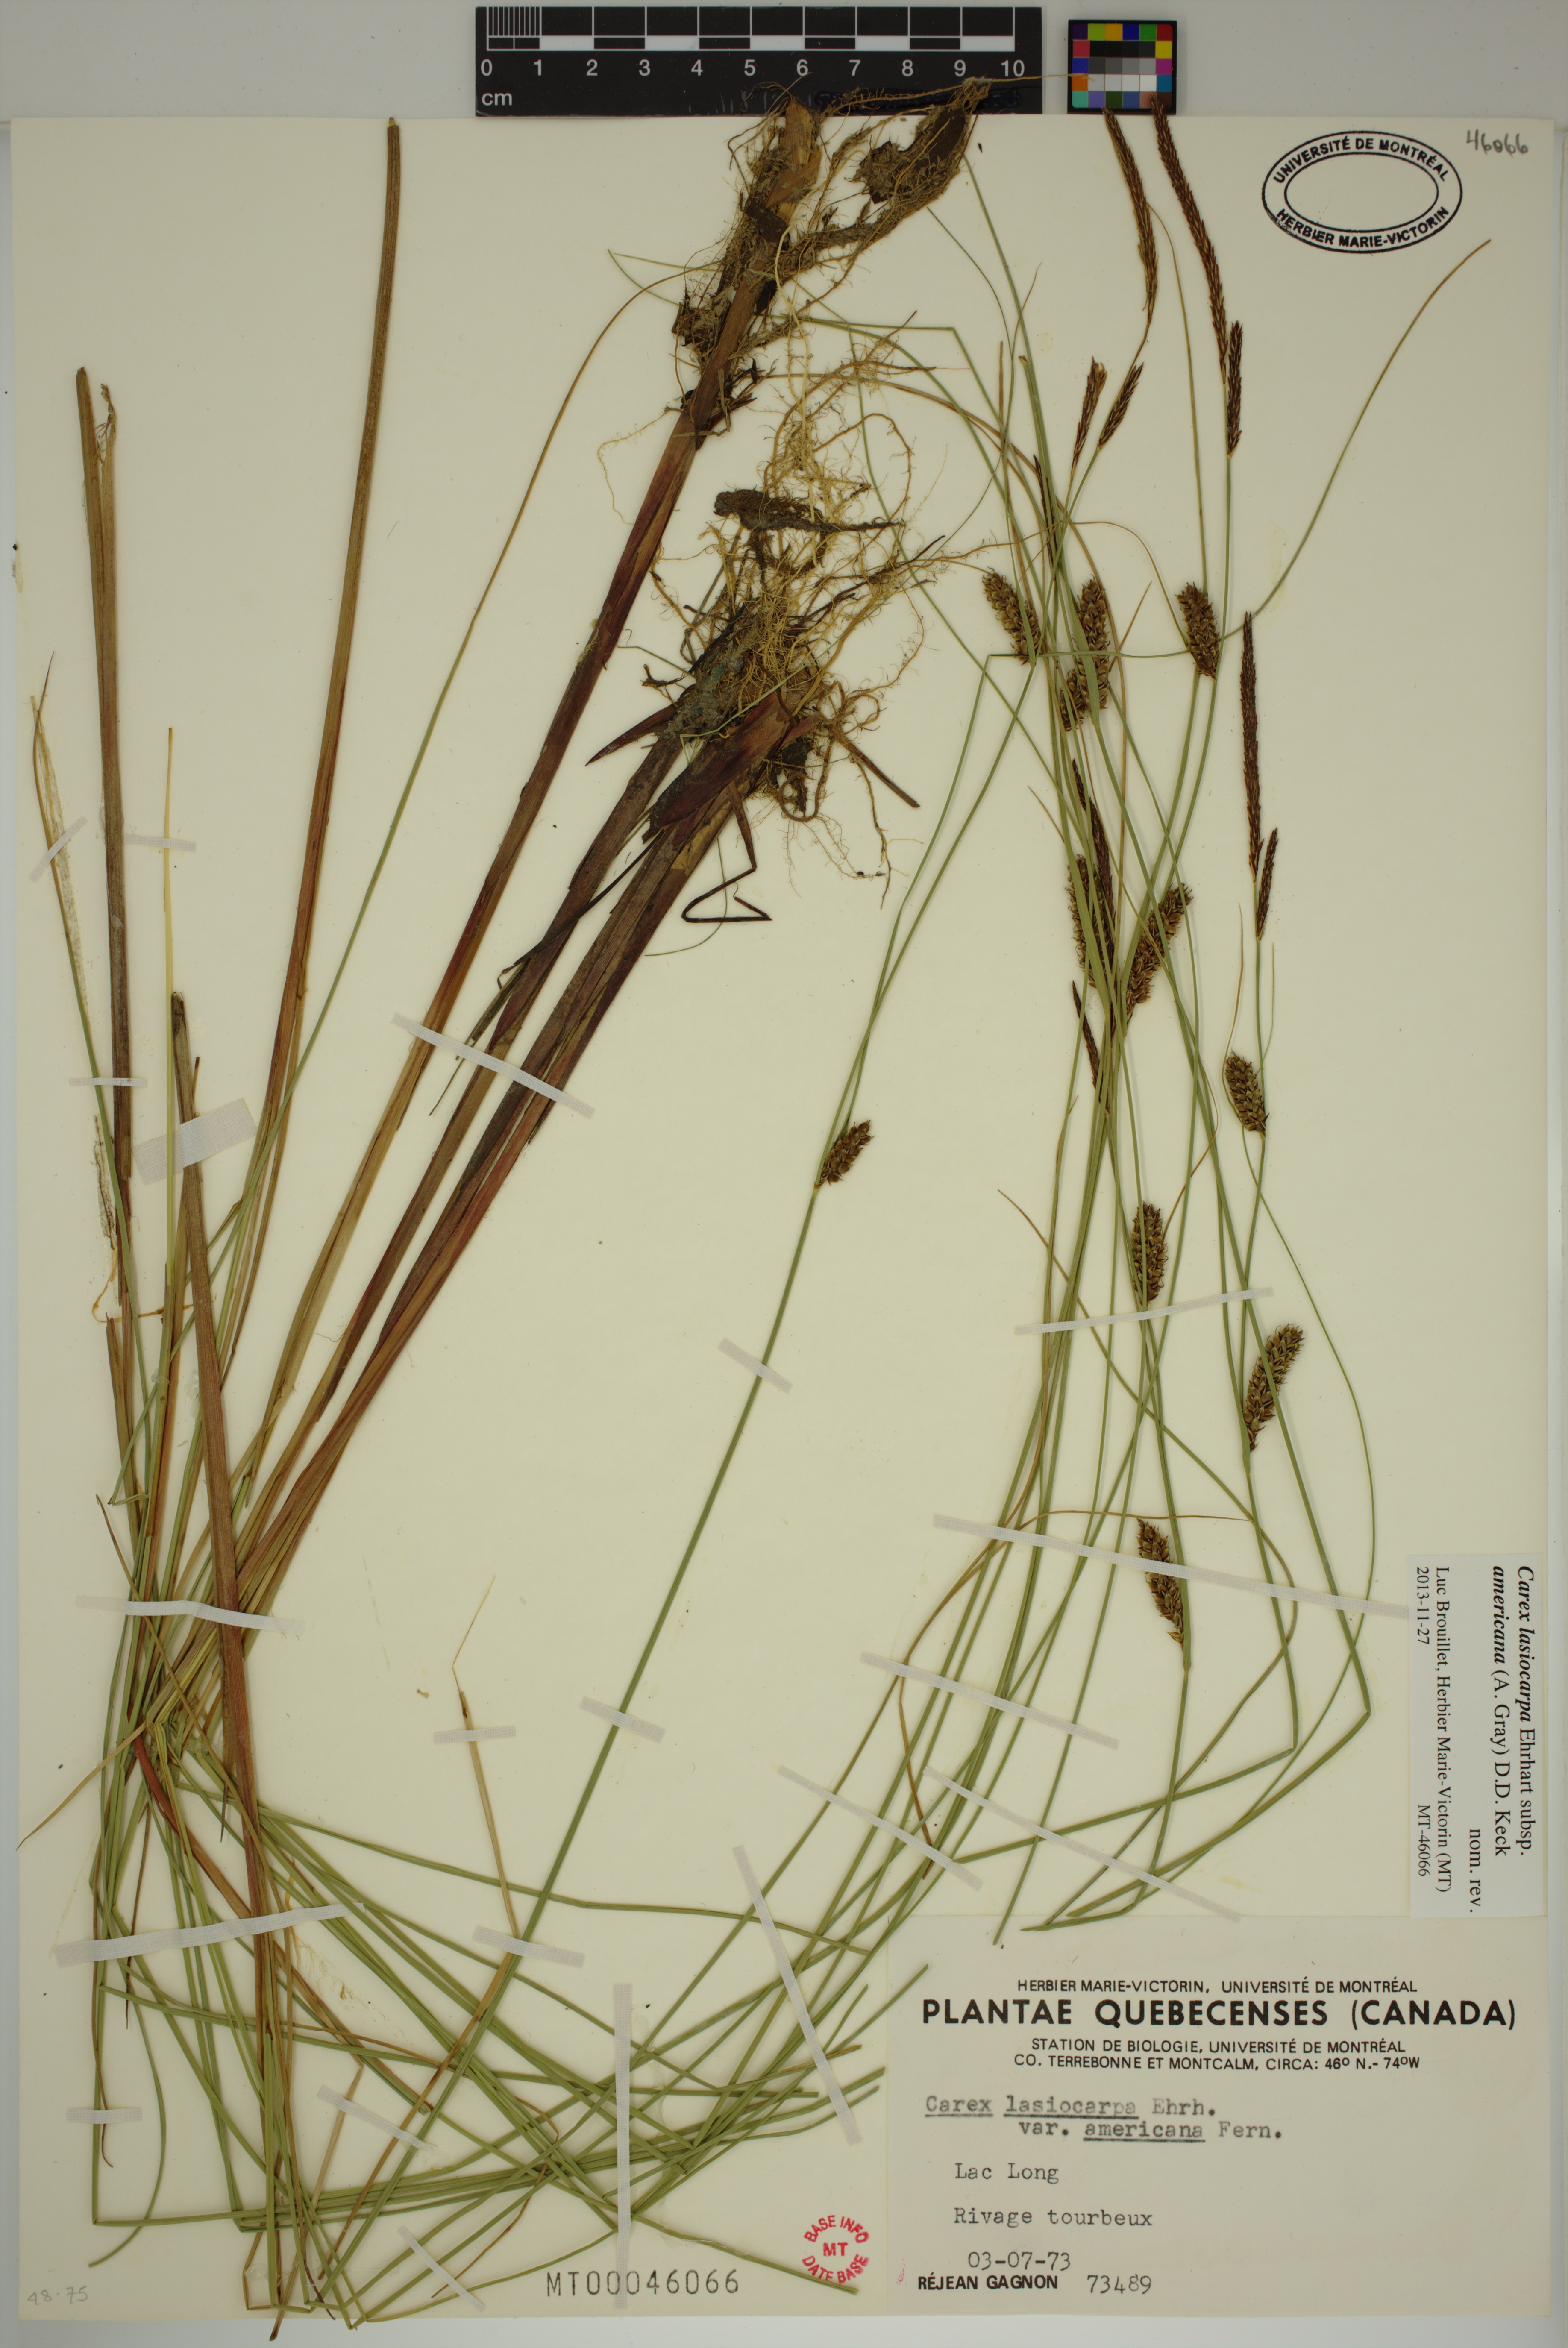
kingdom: Plantae
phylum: Tracheophyta
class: Liliopsida
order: Poales
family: Cyperaceae
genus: Carex
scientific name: Carex lasiocarpa
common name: Slender sedge
